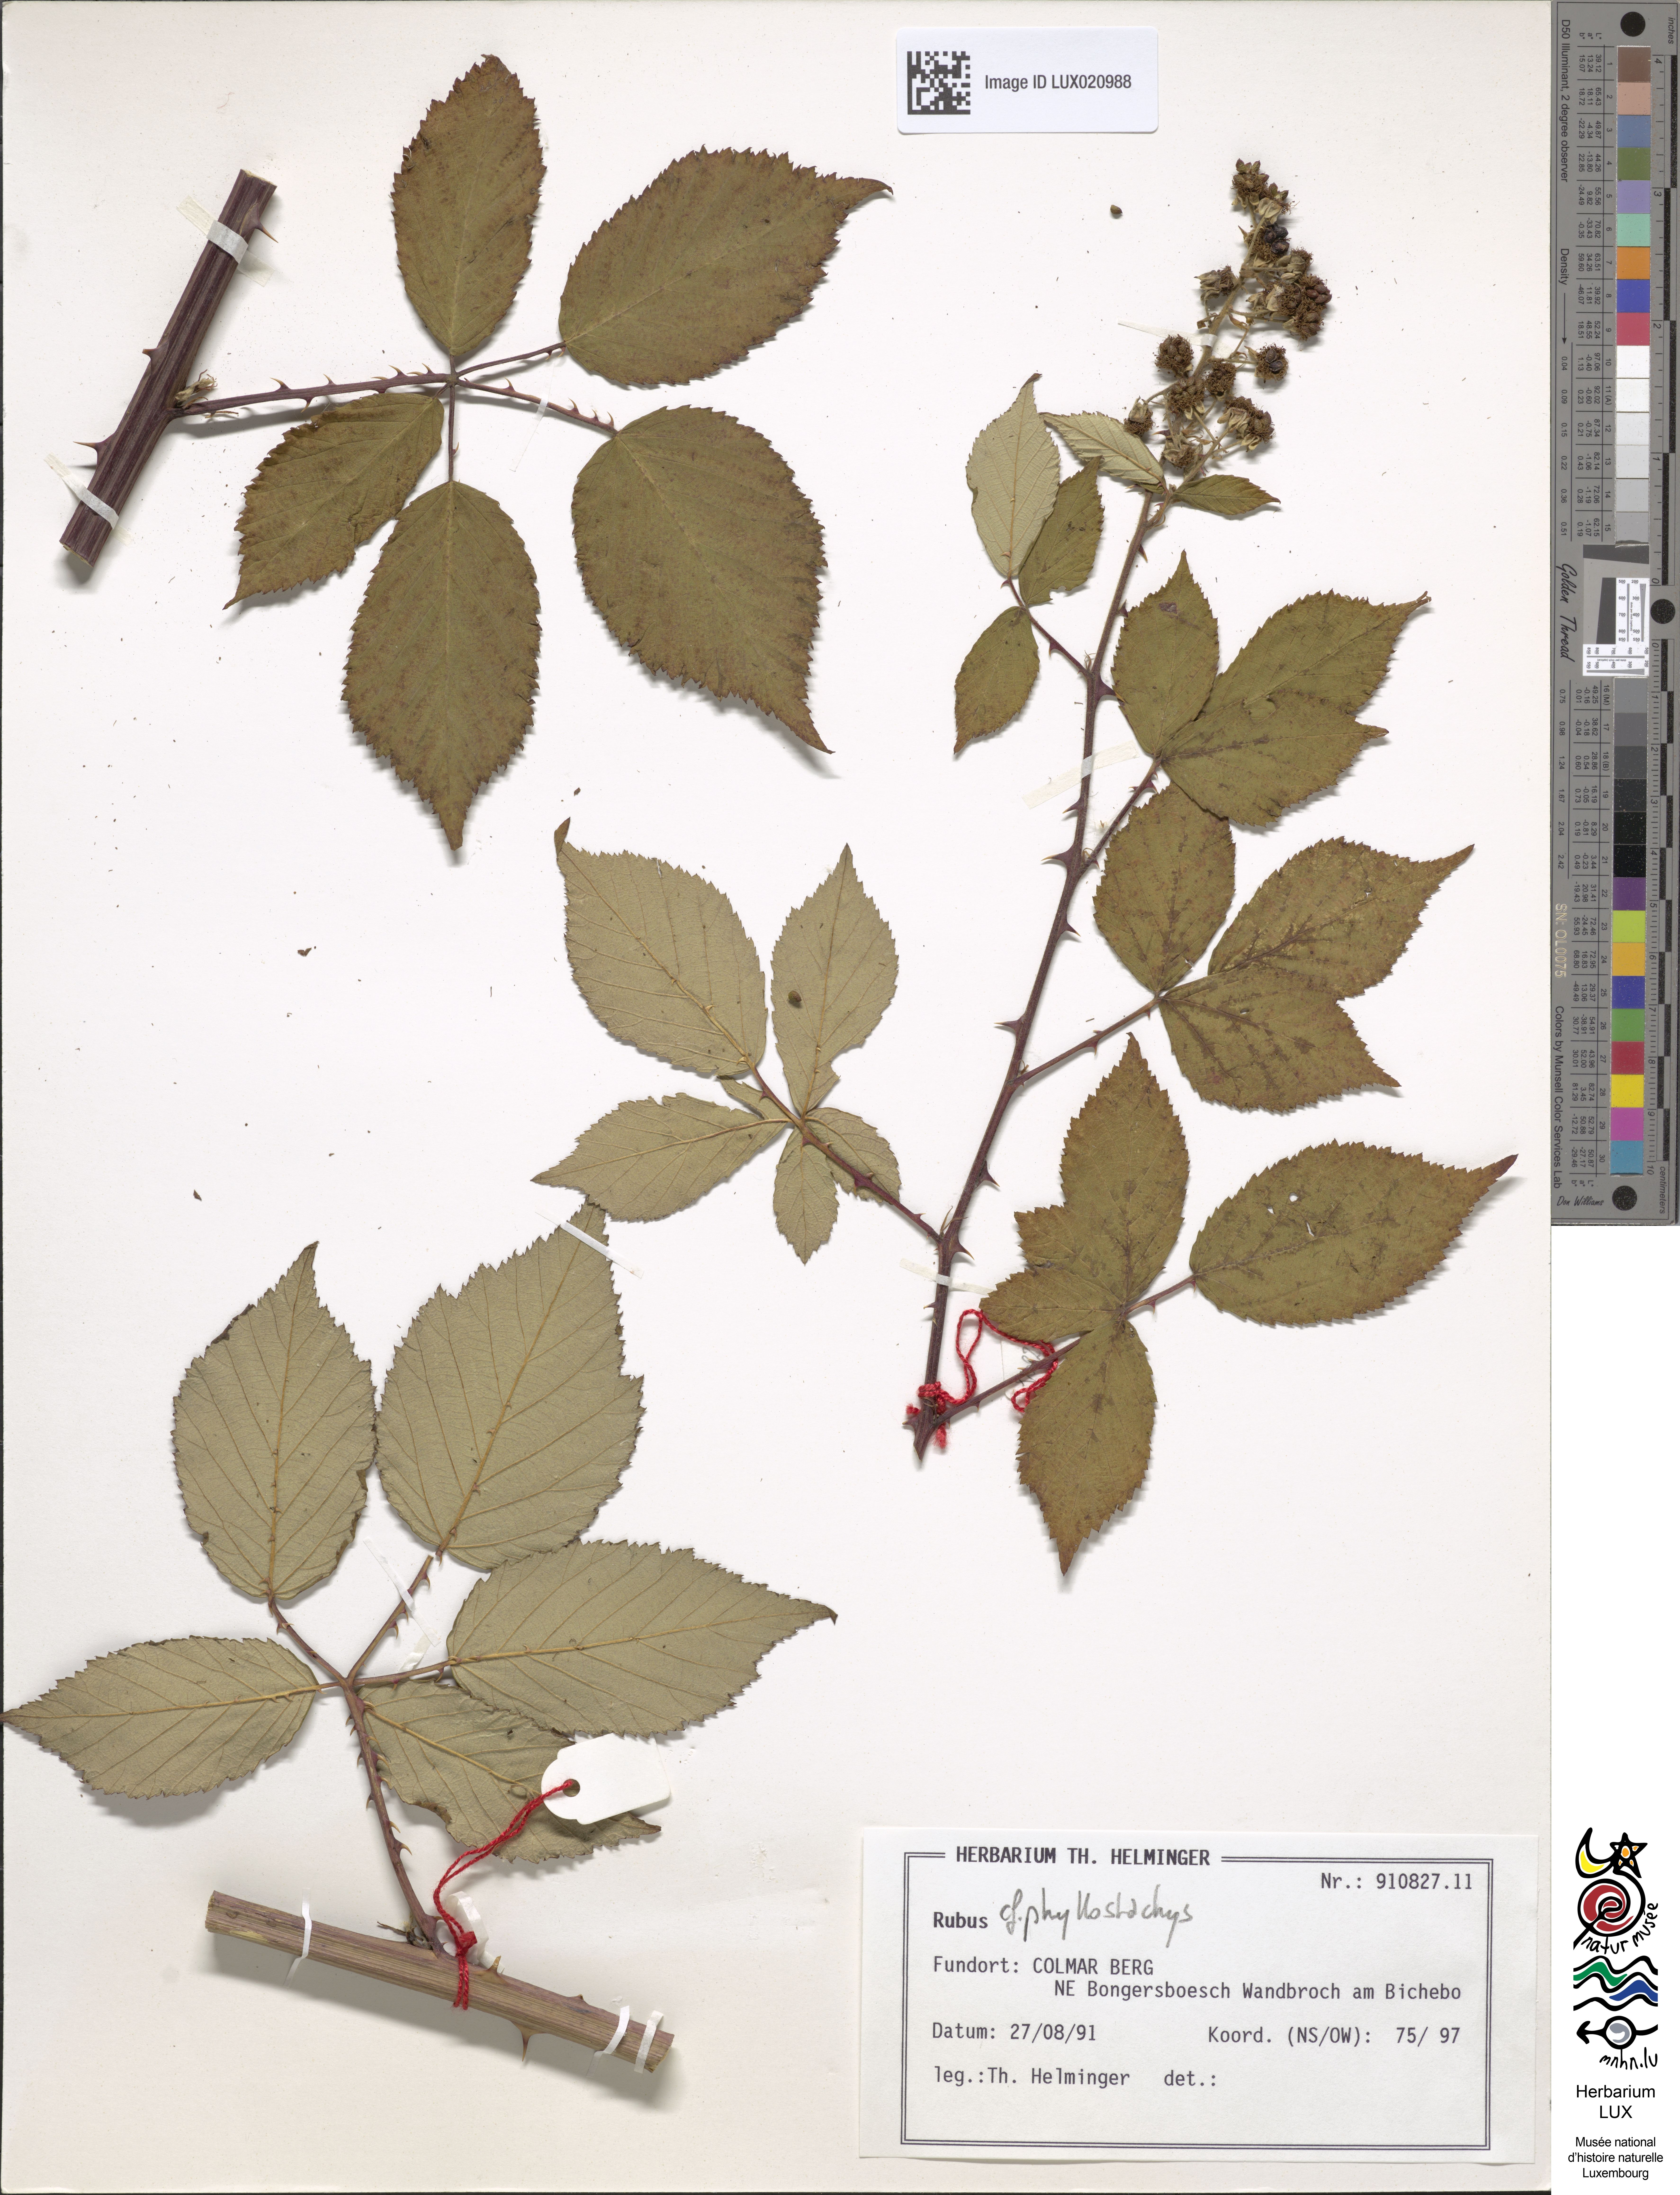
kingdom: Plantae
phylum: Tracheophyta
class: Magnoliopsida
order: Rosales
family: Rosaceae
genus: Rubus
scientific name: Rubus
